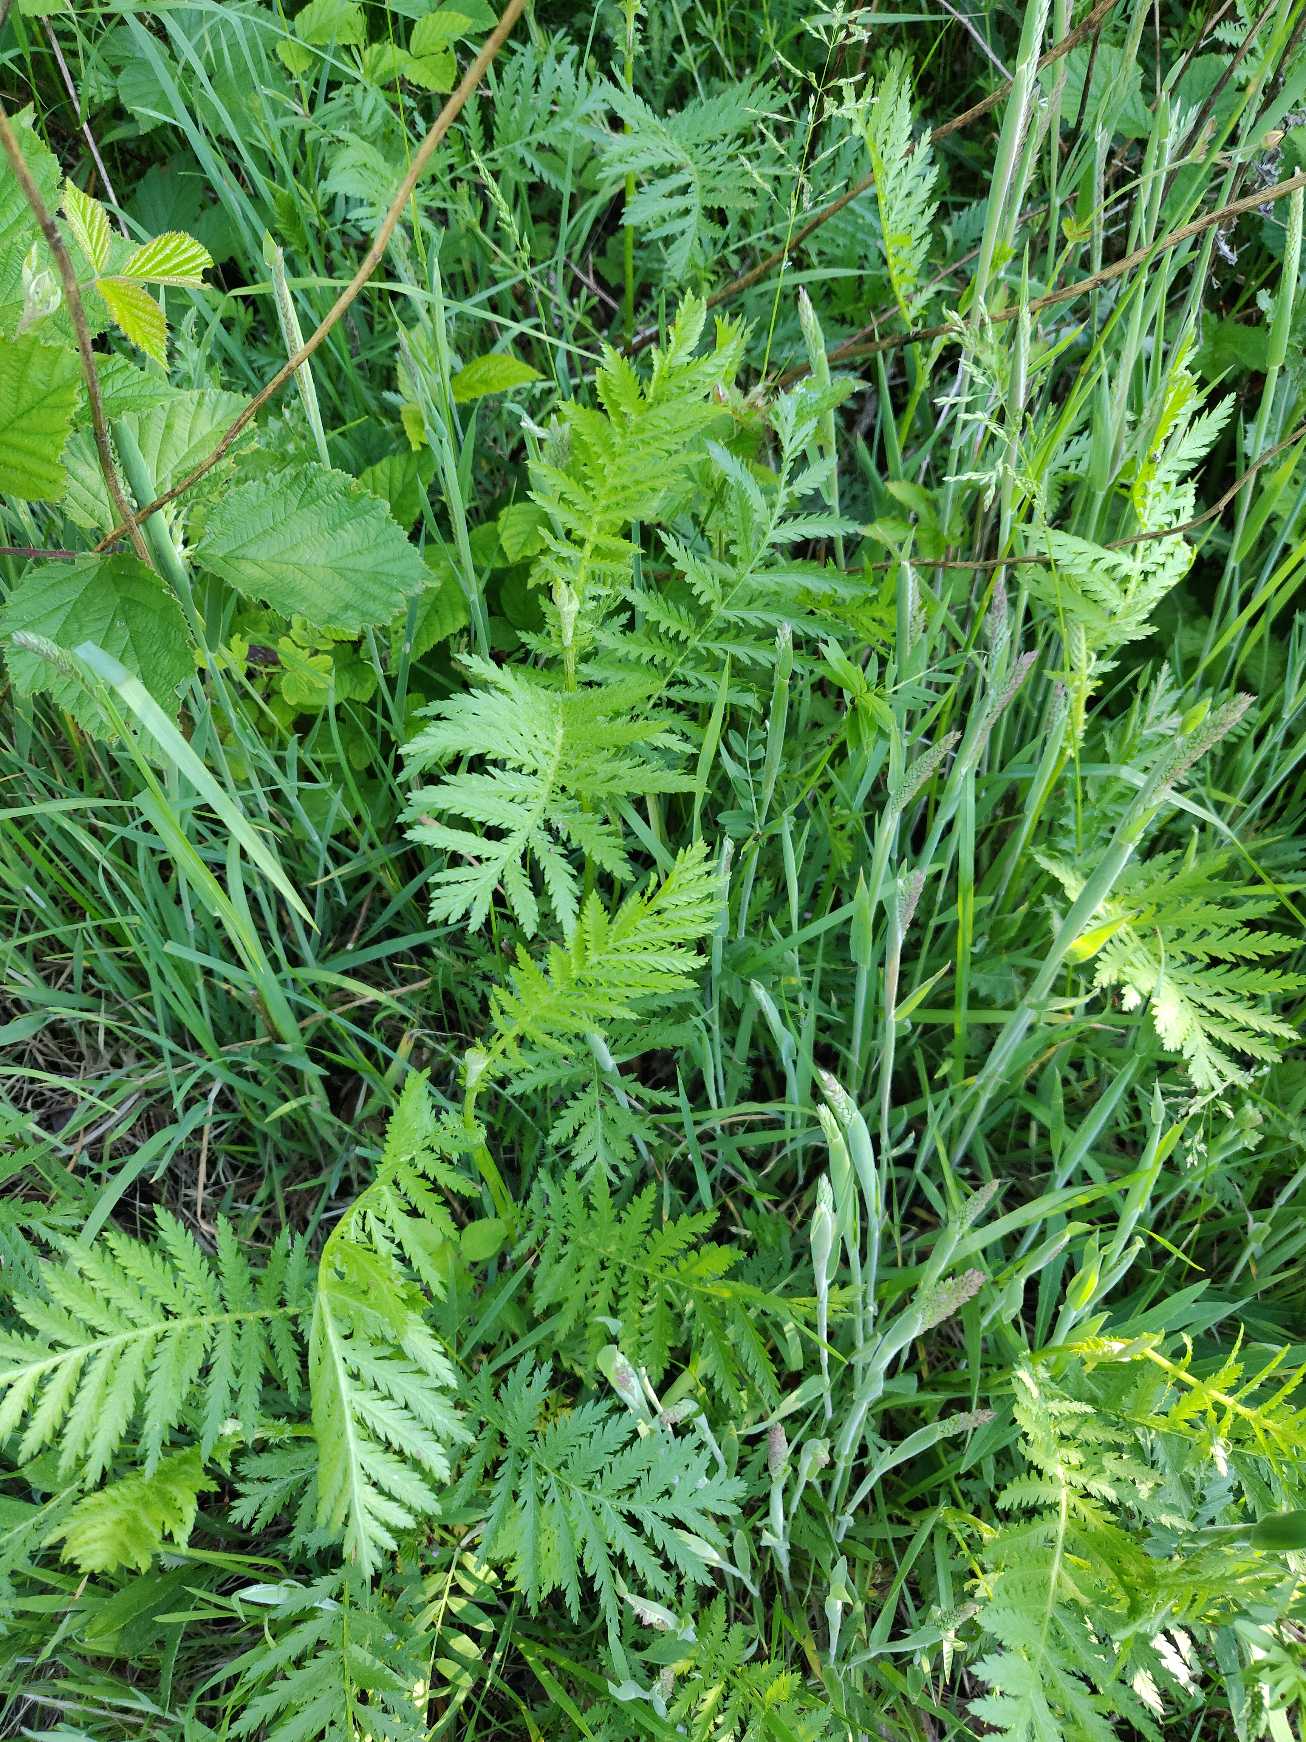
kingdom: Plantae
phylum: Tracheophyta
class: Magnoliopsida
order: Asterales
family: Asteraceae
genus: Tanacetum
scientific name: Tanacetum vulgare
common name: Rejnfan
